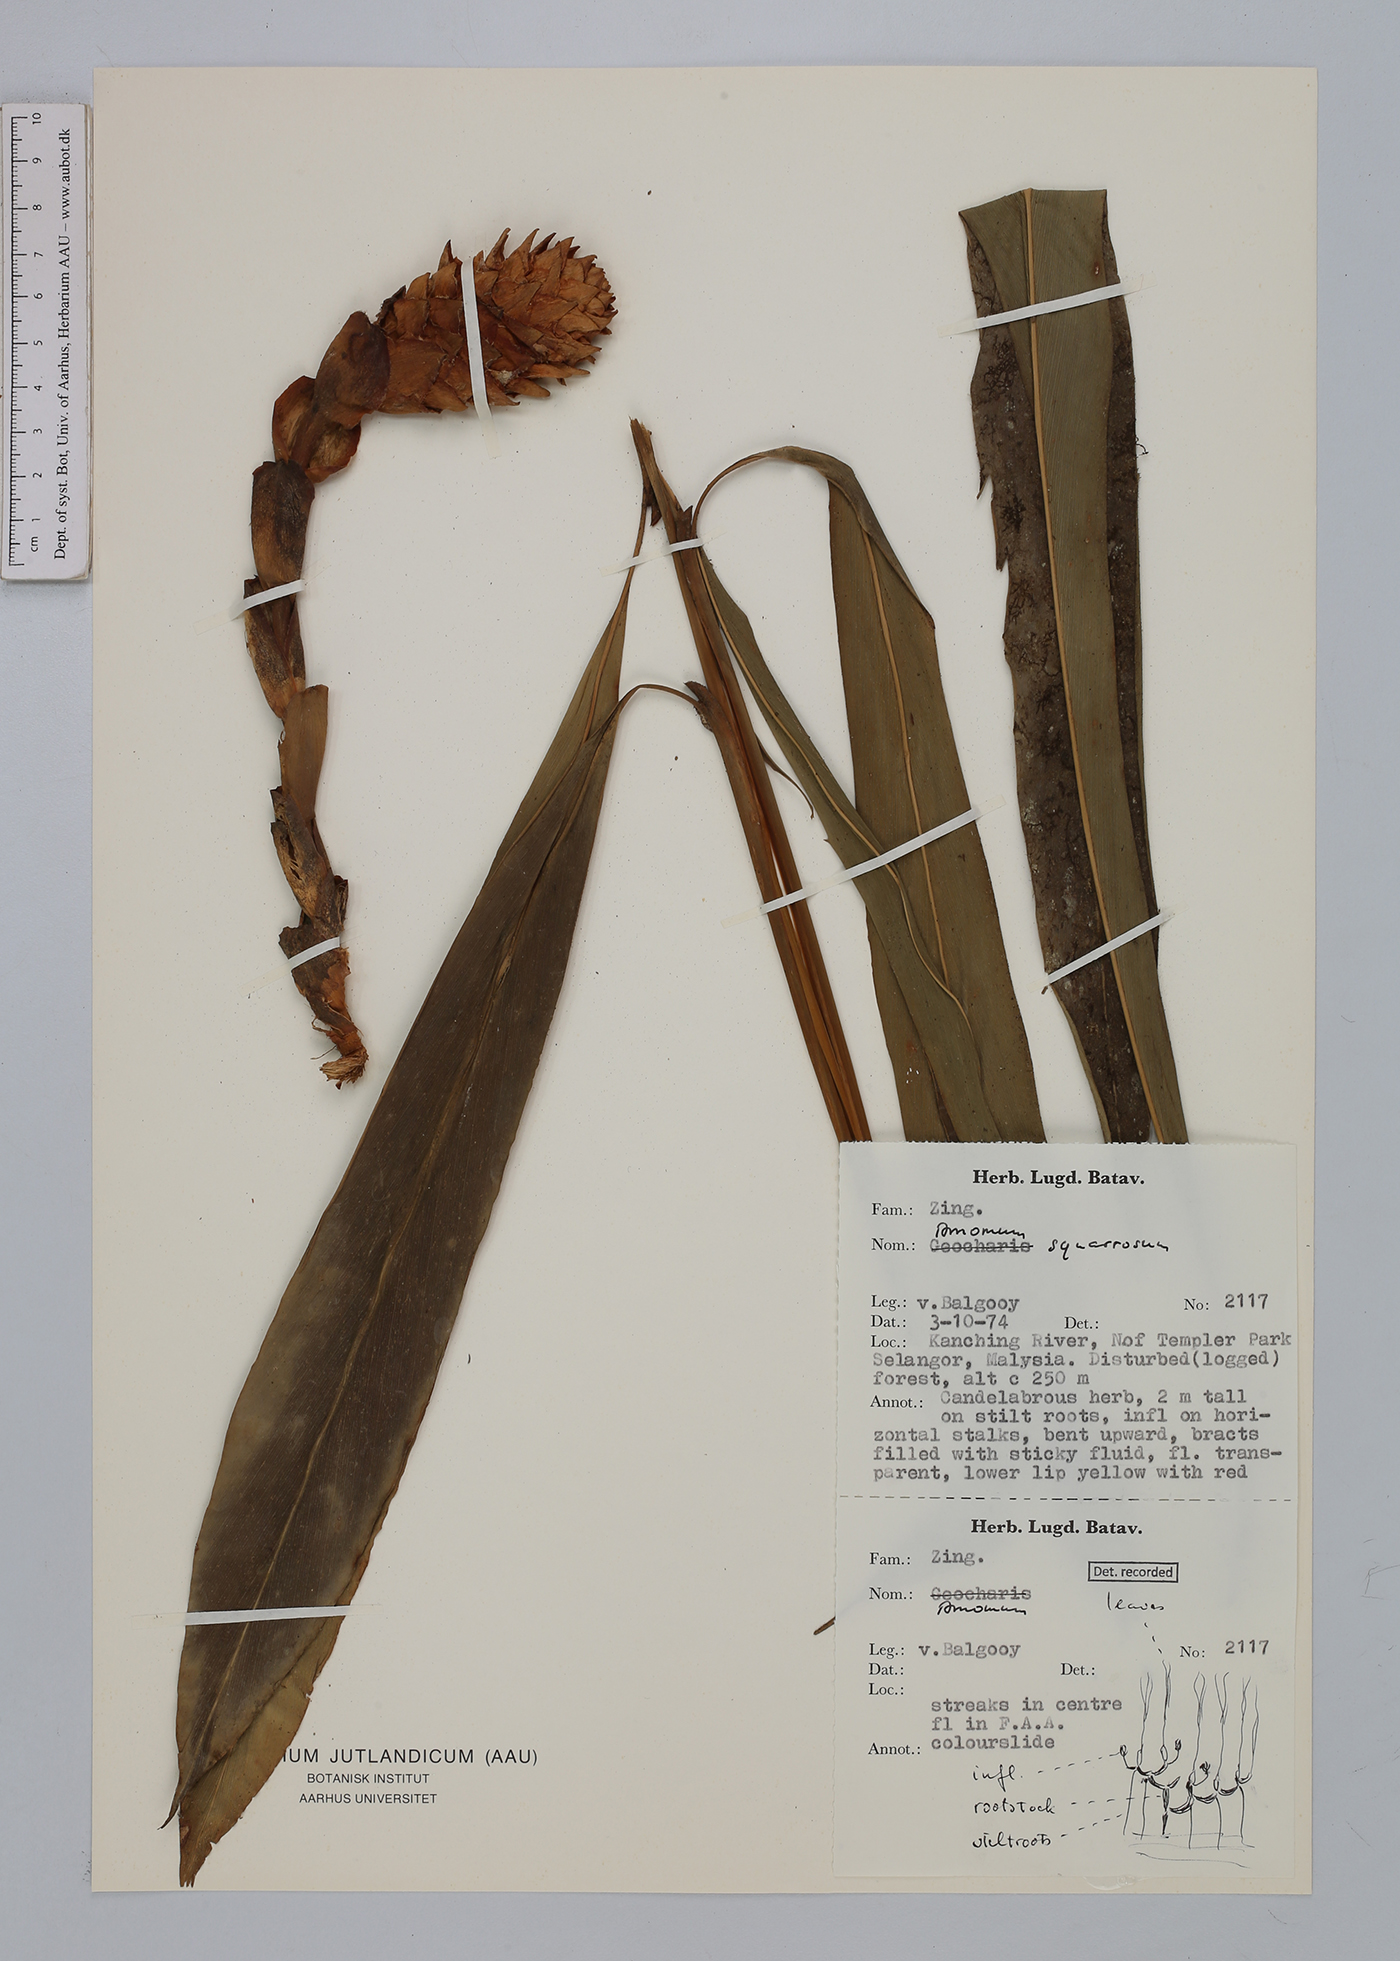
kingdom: Plantae
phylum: Tracheophyta
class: Liliopsida
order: Zingiberales
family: Zingiberaceae
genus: Conamomum
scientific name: Conamomum squarrosum
